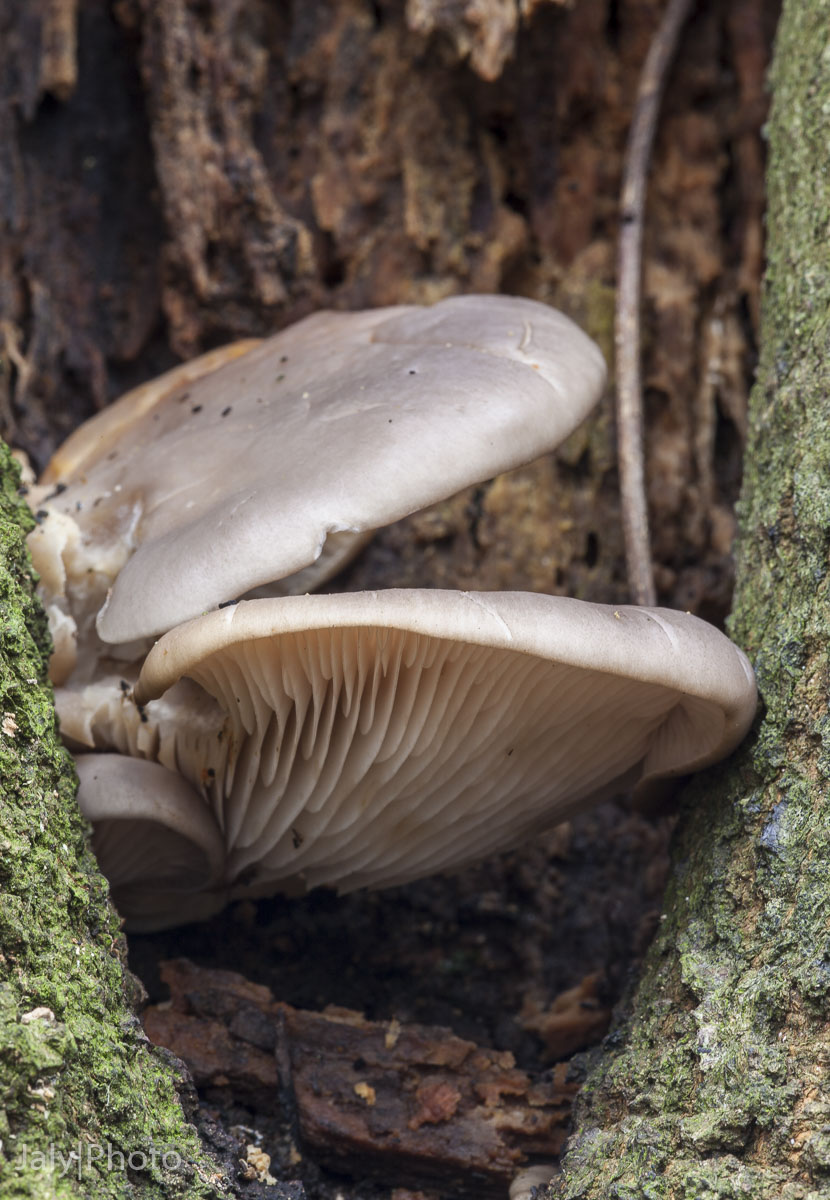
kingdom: Fungi
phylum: Basidiomycota
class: Agaricomycetes
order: Agaricales
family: Pleurotaceae
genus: Pleurotus
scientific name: Pleurotus ostreatus
